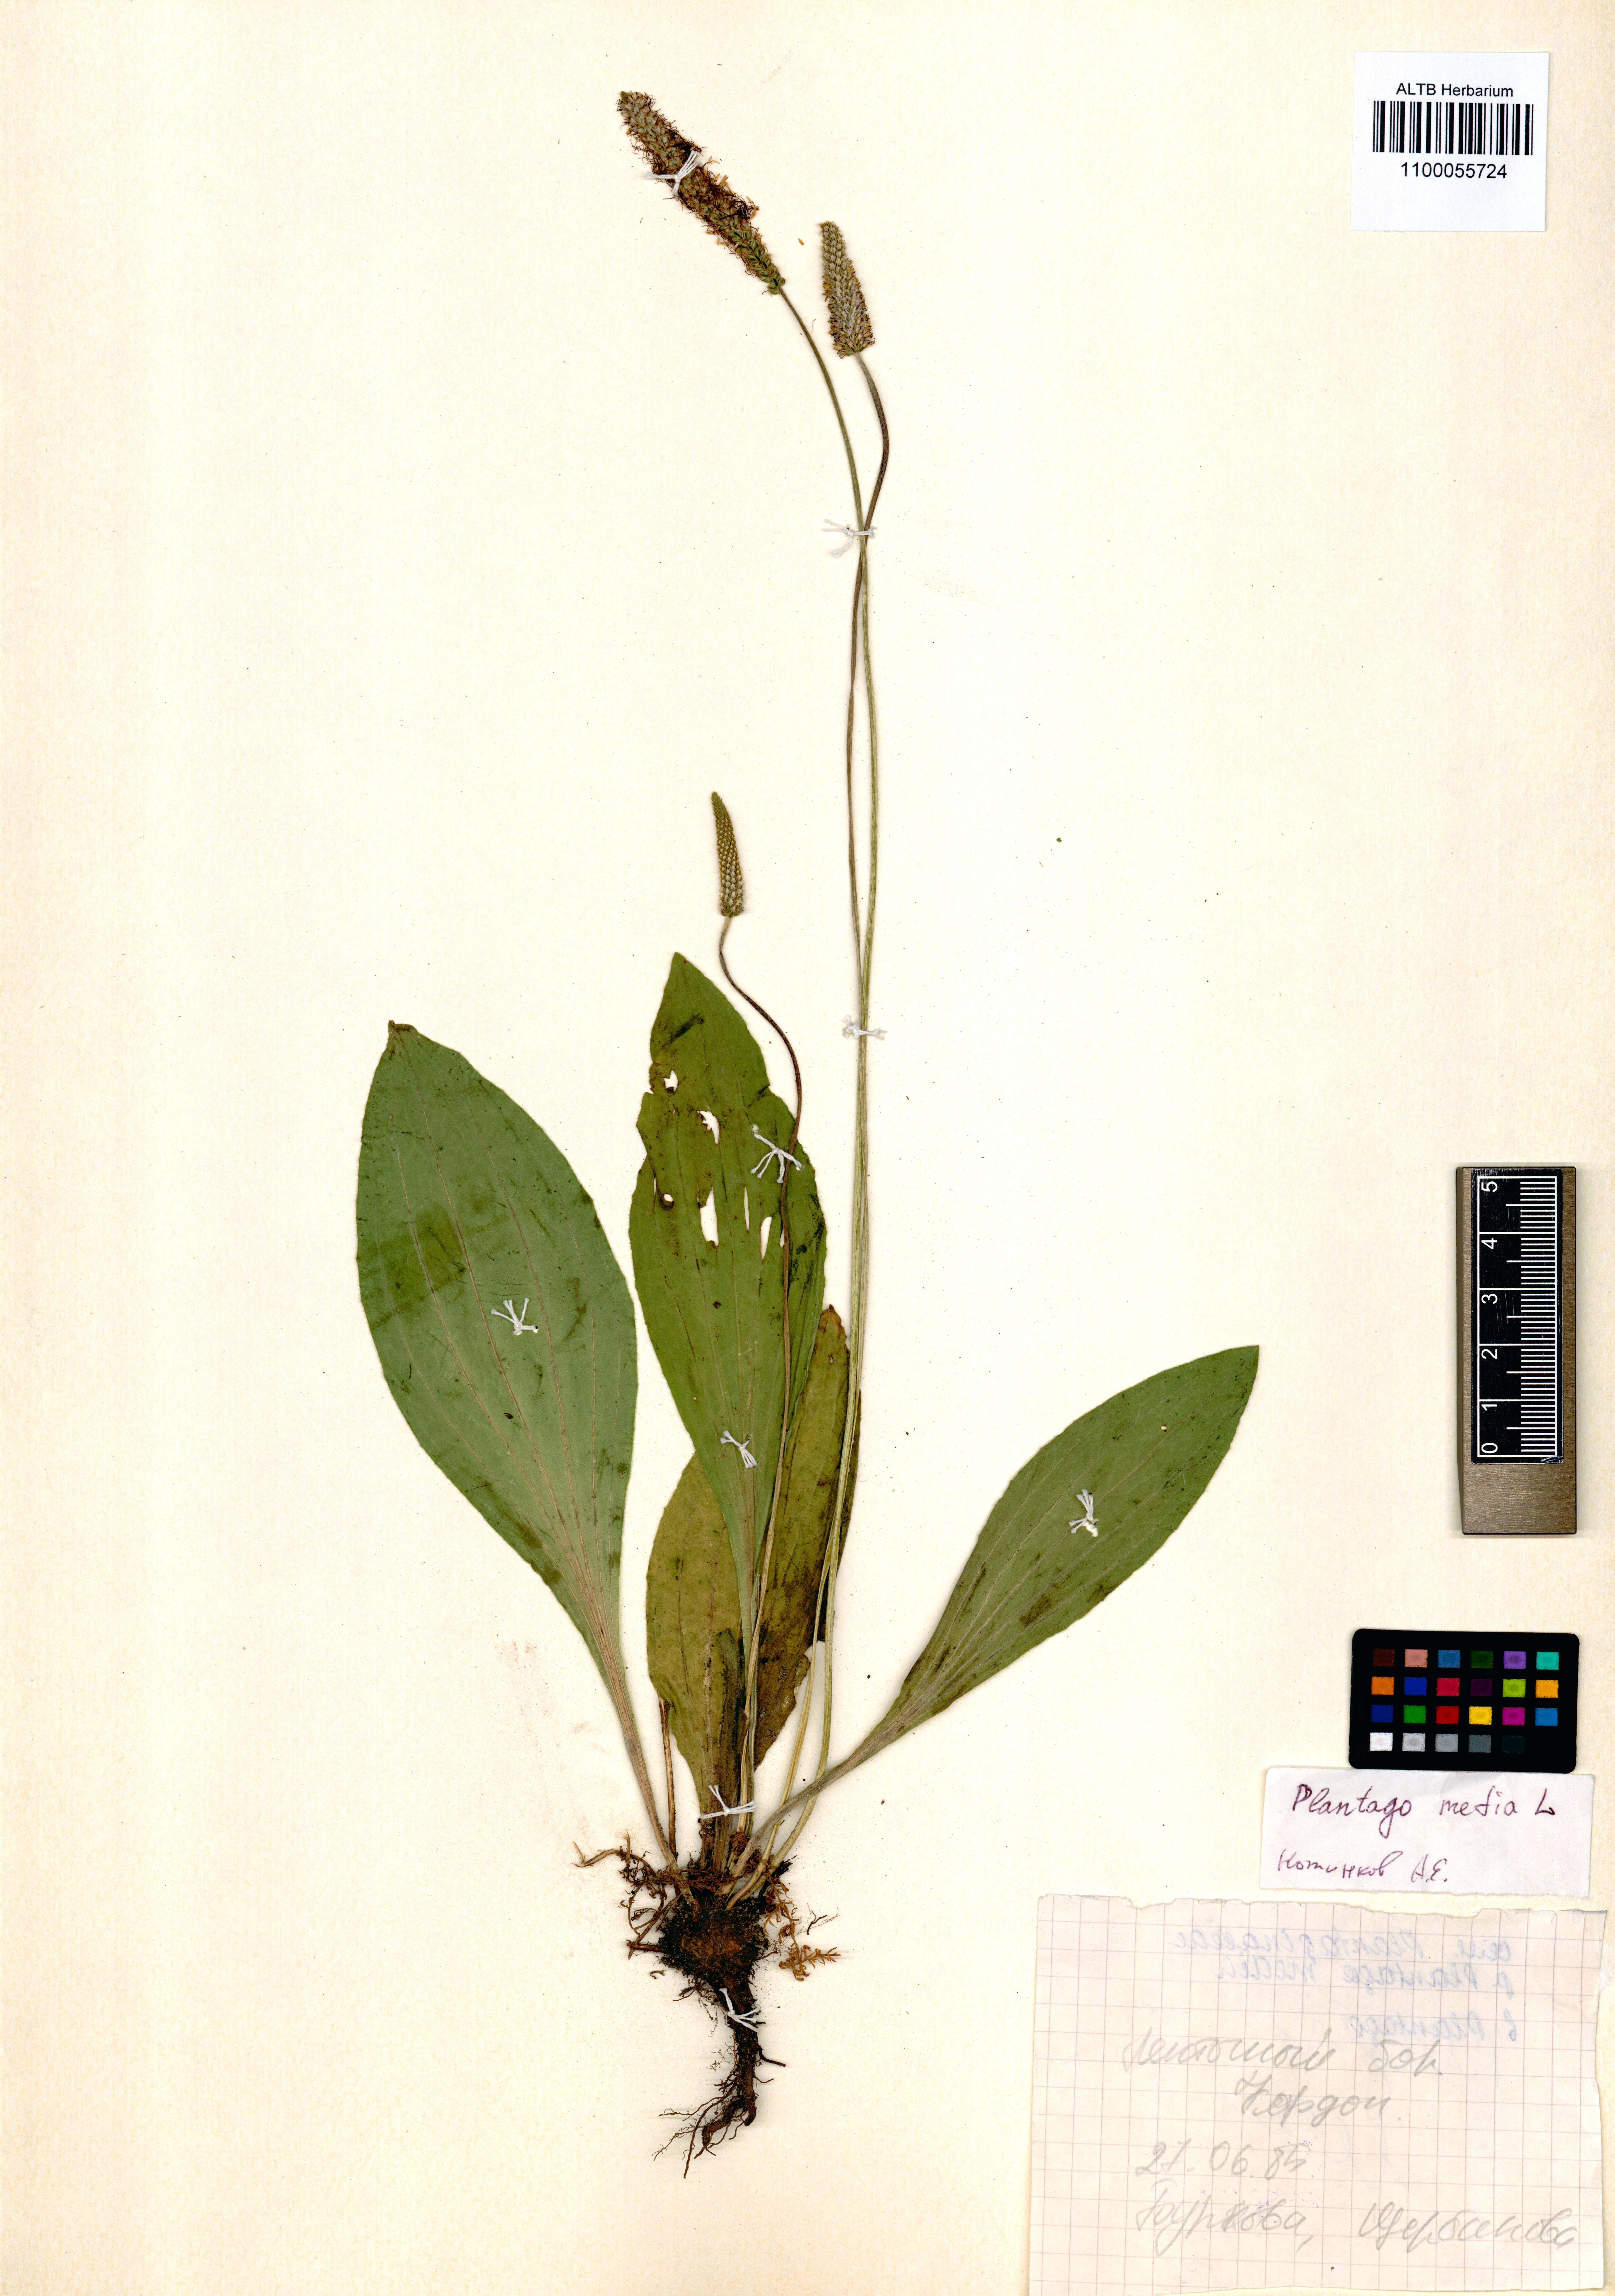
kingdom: Plantae
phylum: Tracheophyta
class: Magnoliopsida
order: Lamiales
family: Plantaginaceae
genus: Plantago
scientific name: Plantago media
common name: Hoary plantain
